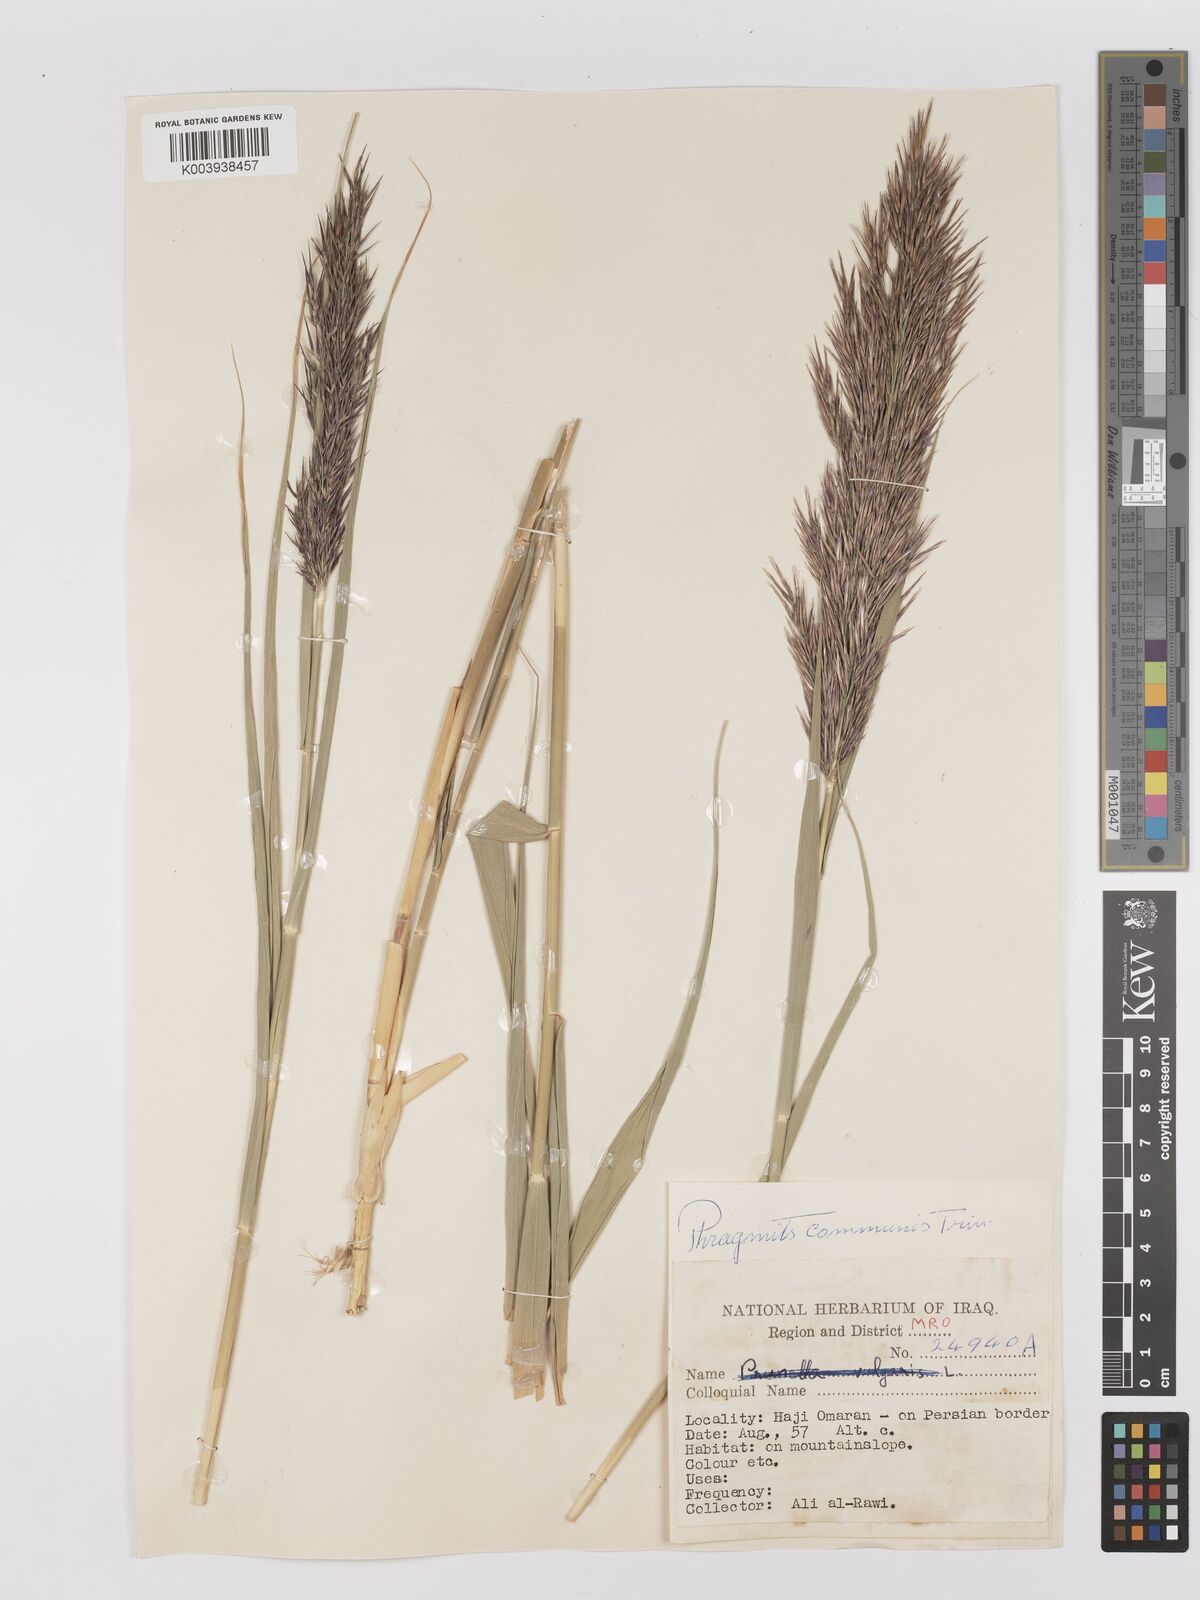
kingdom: Plantae
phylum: Tracheophyta
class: Liliopsida
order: Poales
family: Poaceae
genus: Phragmites
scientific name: Phragmites australis
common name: Common reed
